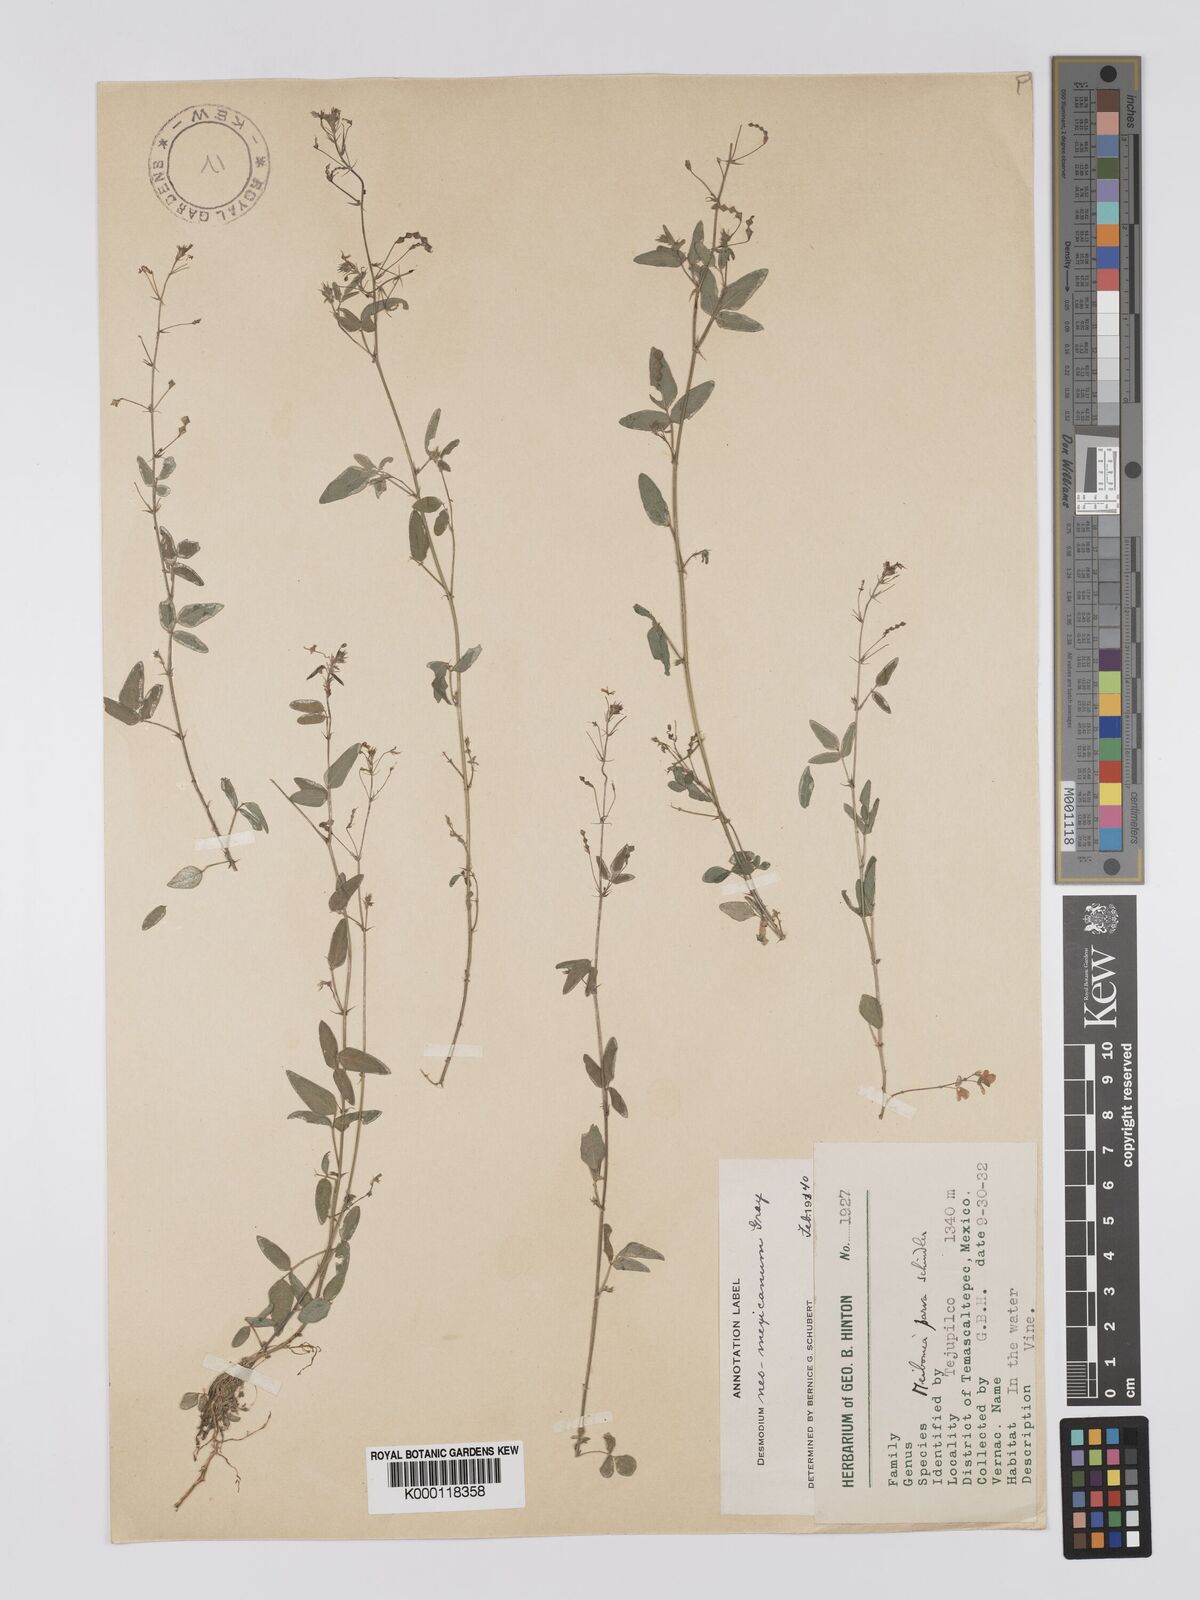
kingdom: Plantae
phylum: Tracheophyta
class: Magnoliopsida
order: Fabales
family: Fabaceae
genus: Desmodium
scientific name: Desmodium procumbens
